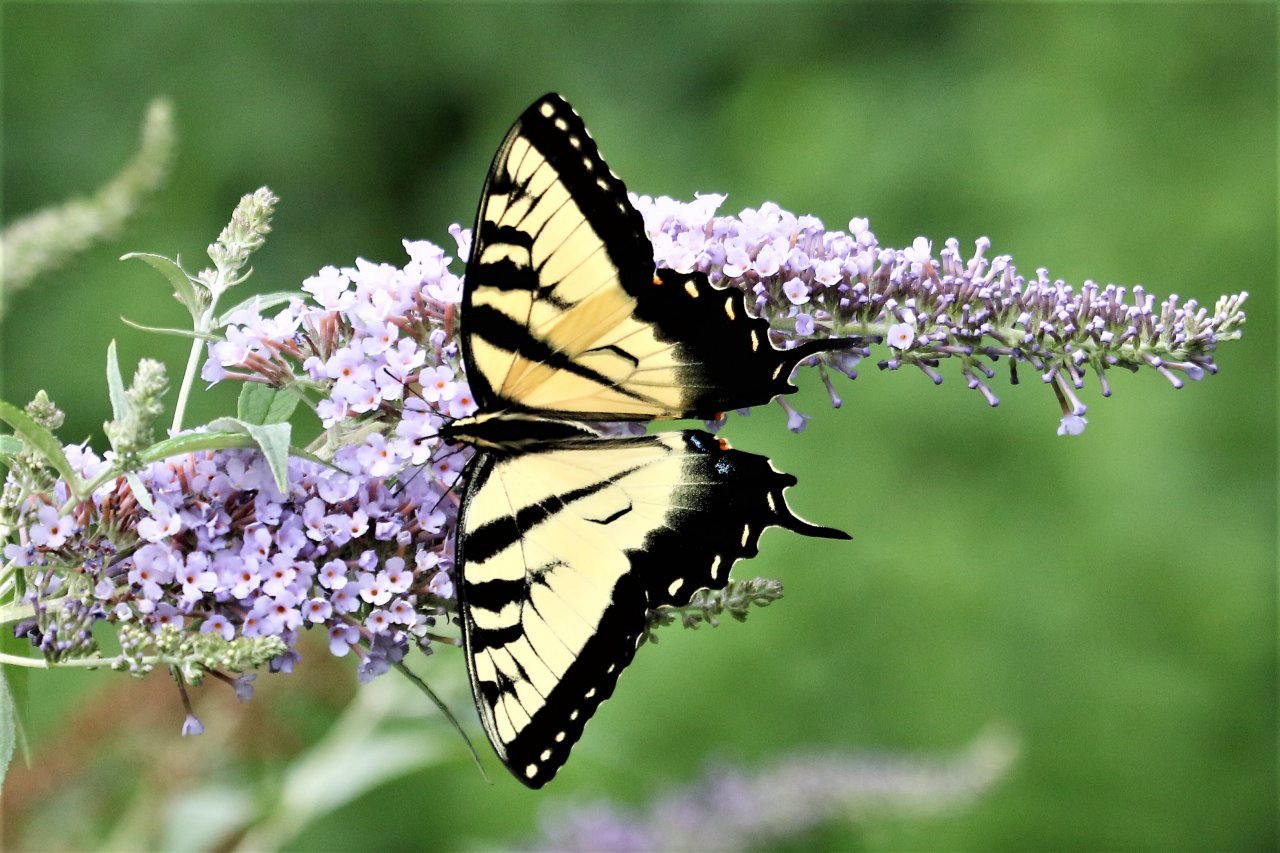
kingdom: Animalia
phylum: Arthropoda
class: Insecta
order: Lepidoptera
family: Papilionidae
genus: Pterourus
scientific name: Pterourus glaucus
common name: Eastern Tiger Swallowtail
